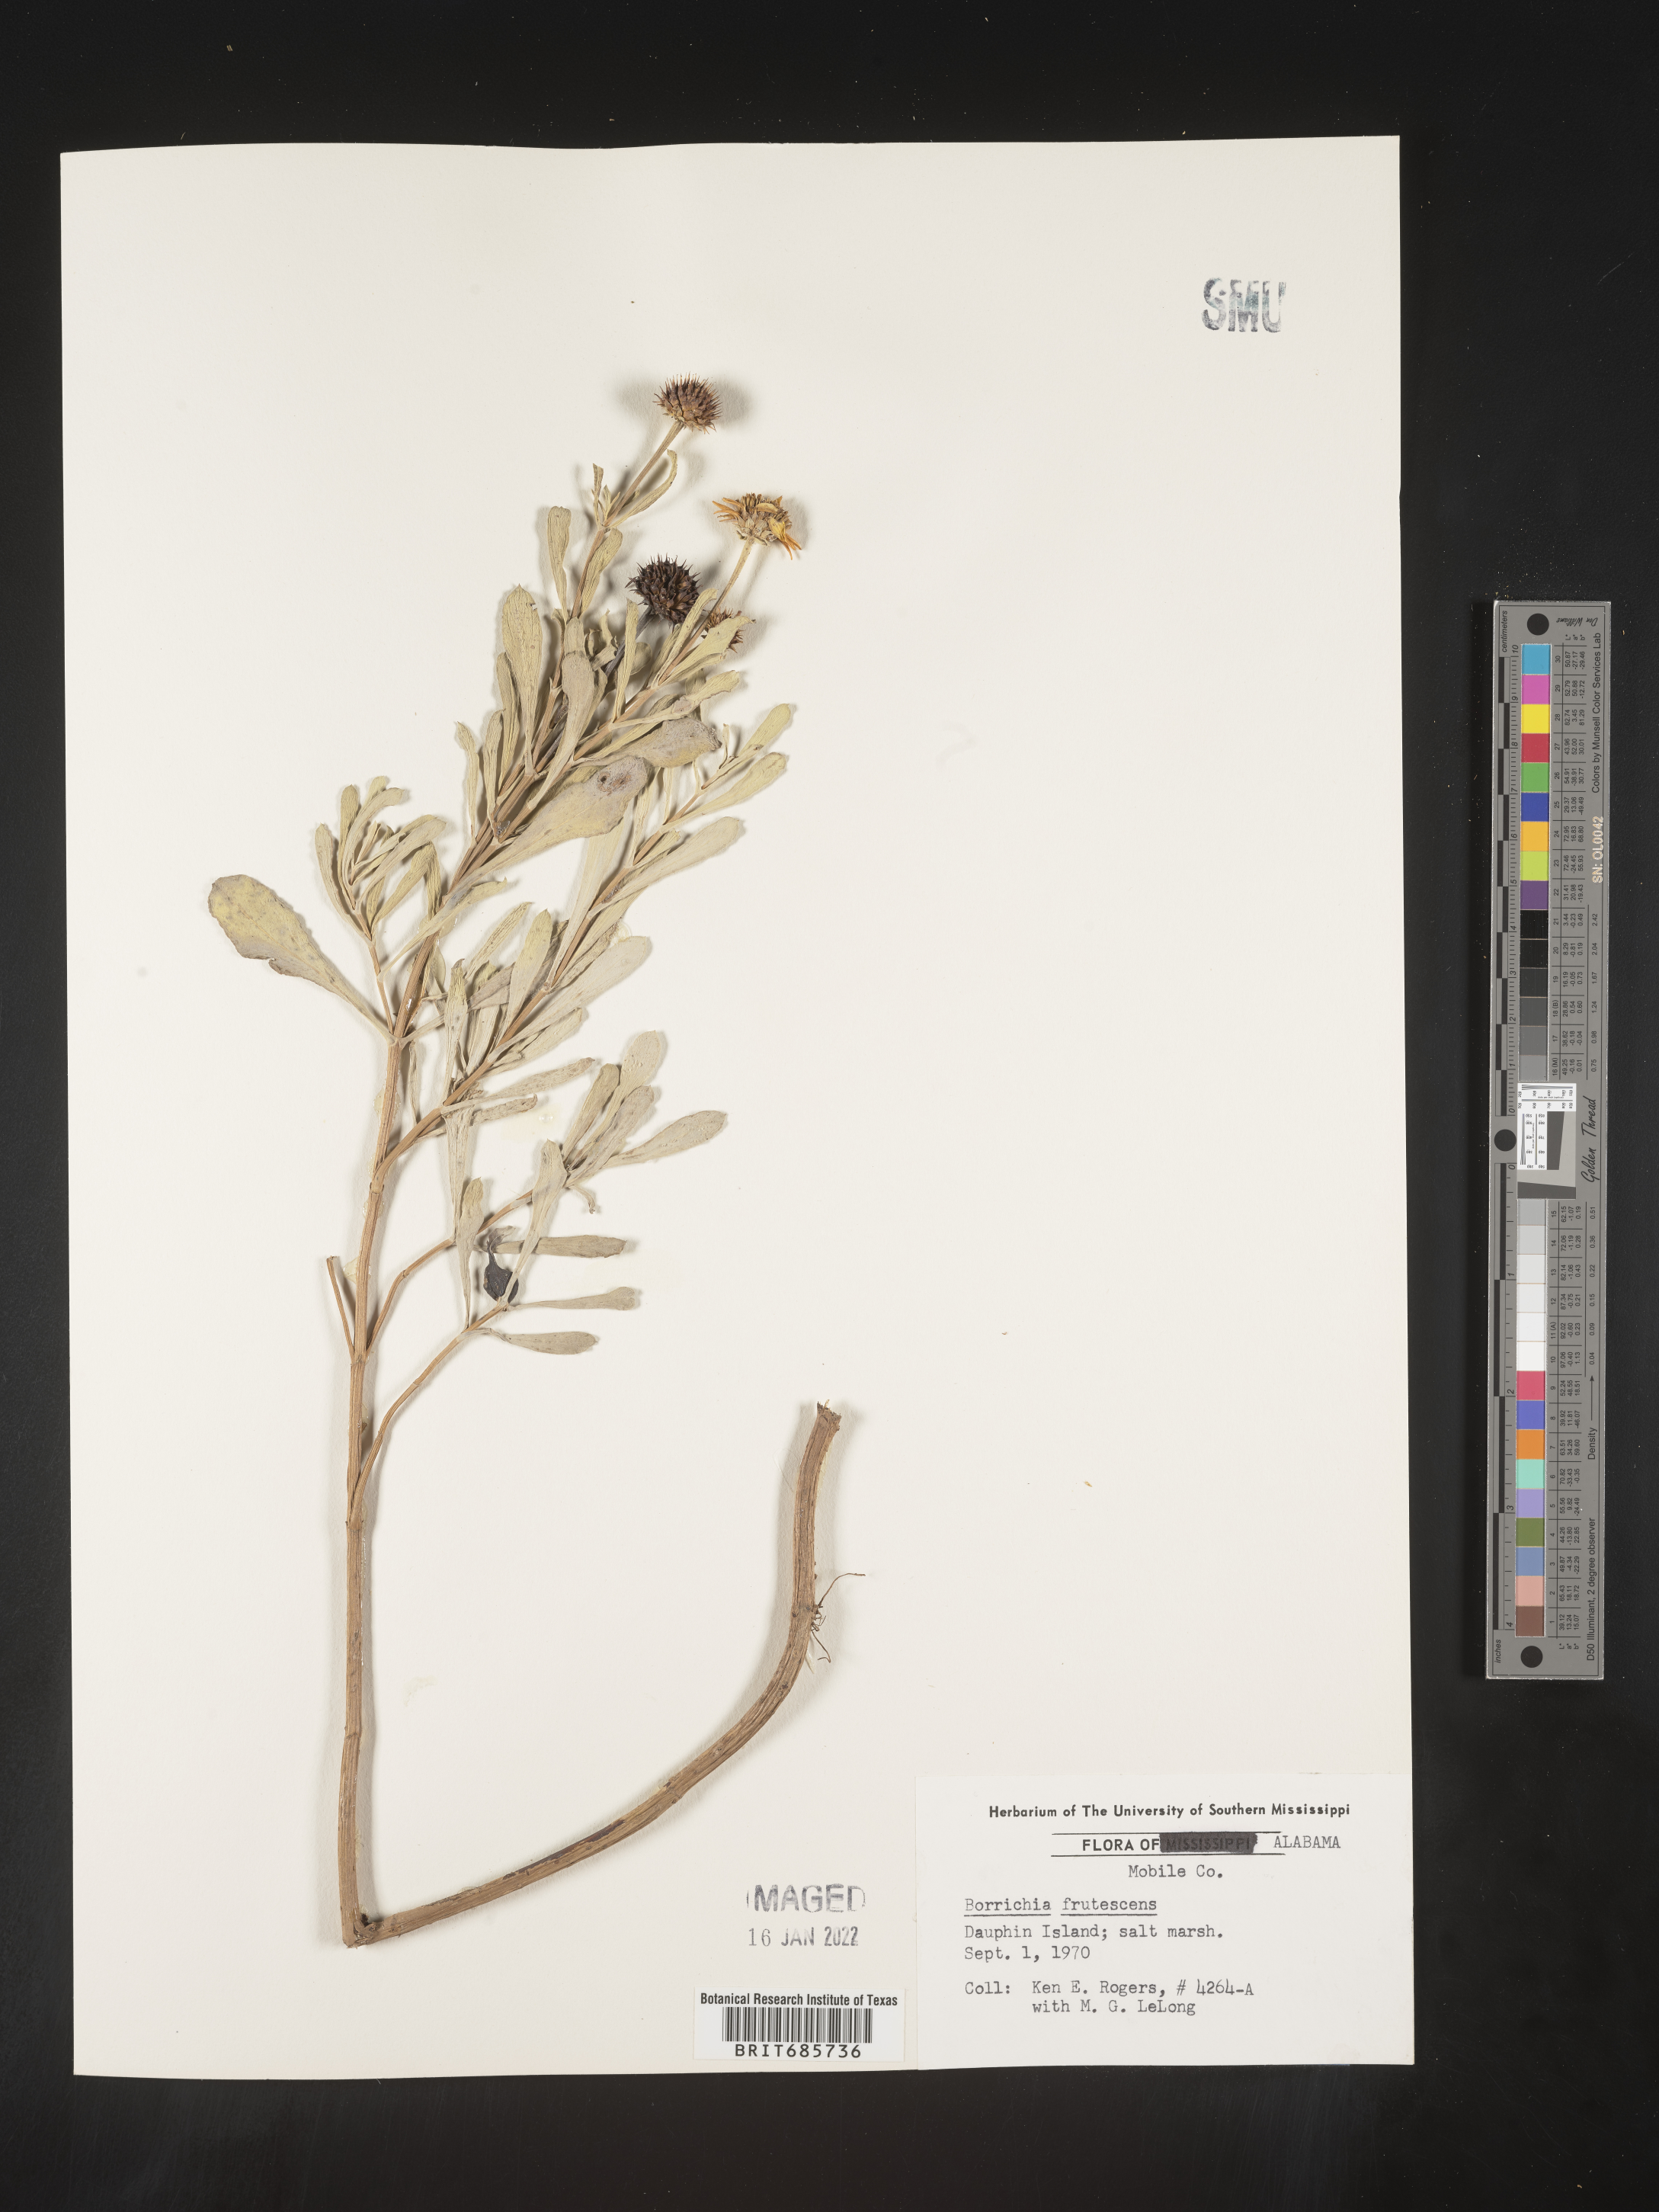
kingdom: Plantae
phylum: Tracheophyta
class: Magnoliopsida
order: Asterales
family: Asteraceae
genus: Borrichia
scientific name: Borrichia frutescens
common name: Sea oxeye
